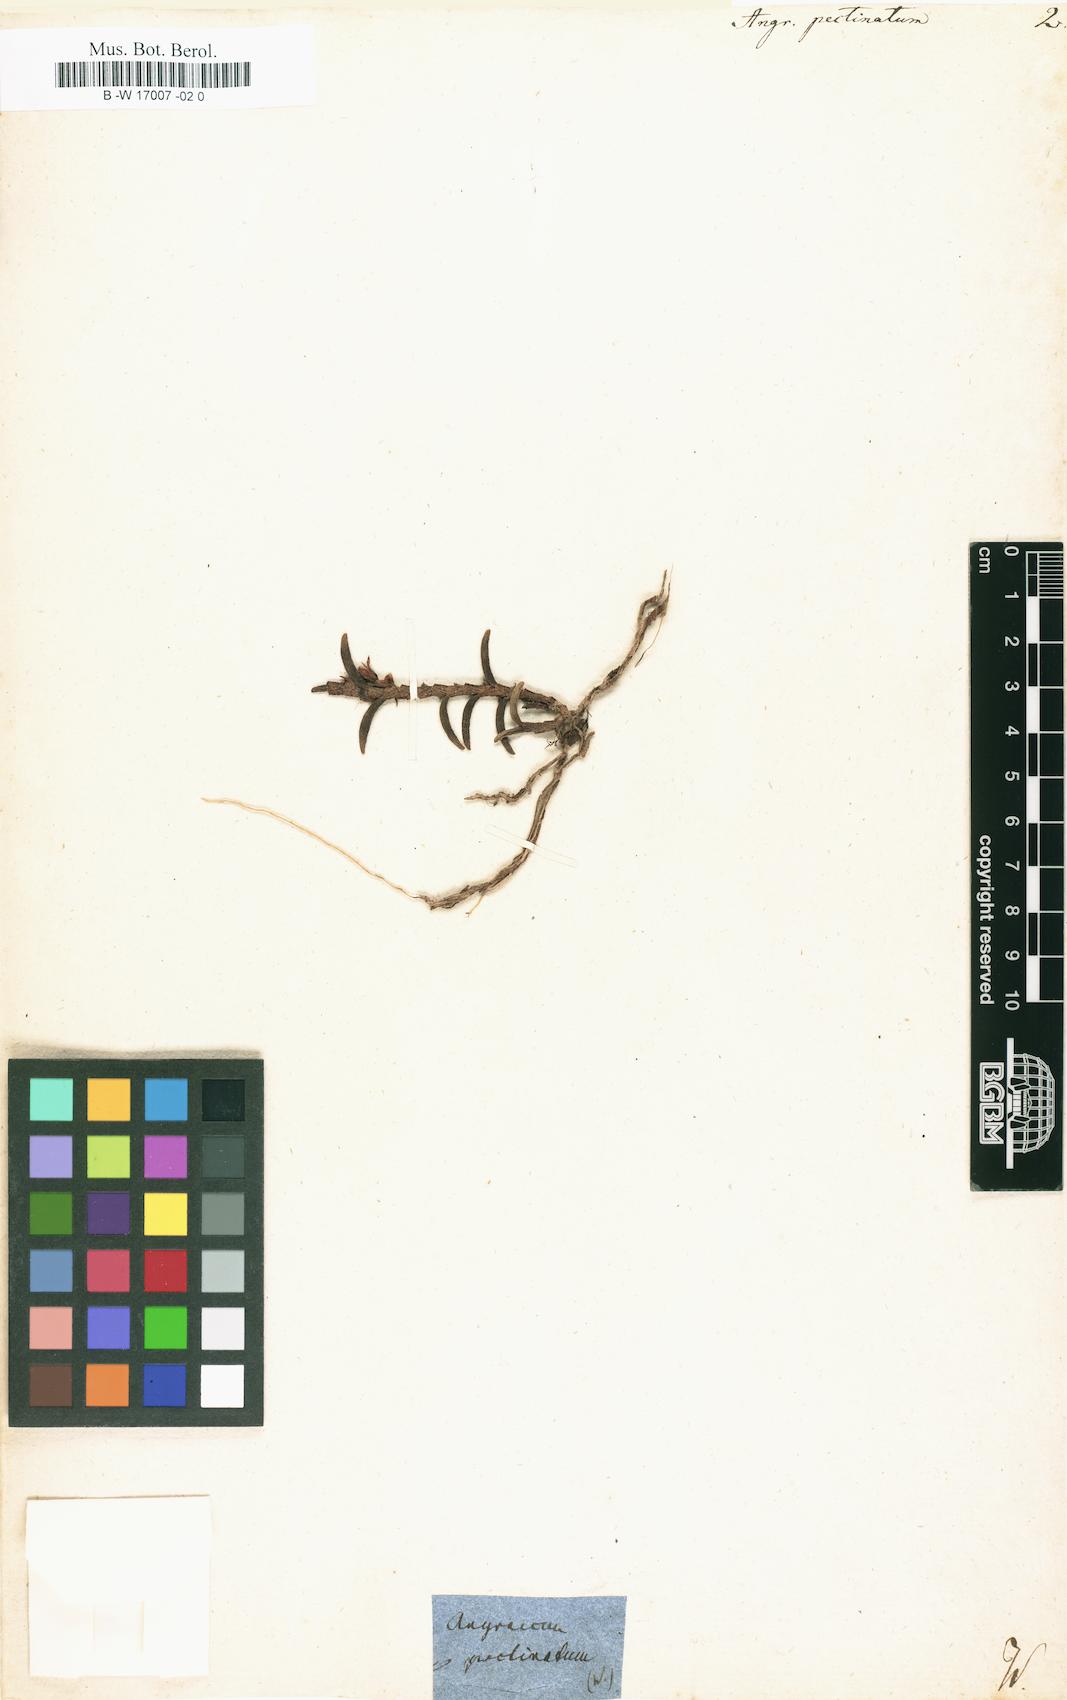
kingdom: Plantae
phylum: Tracheophyta
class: Liliopsida
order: Asparagales
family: Orchidaceae
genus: Angraecum
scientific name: Angraecum pectinatum
